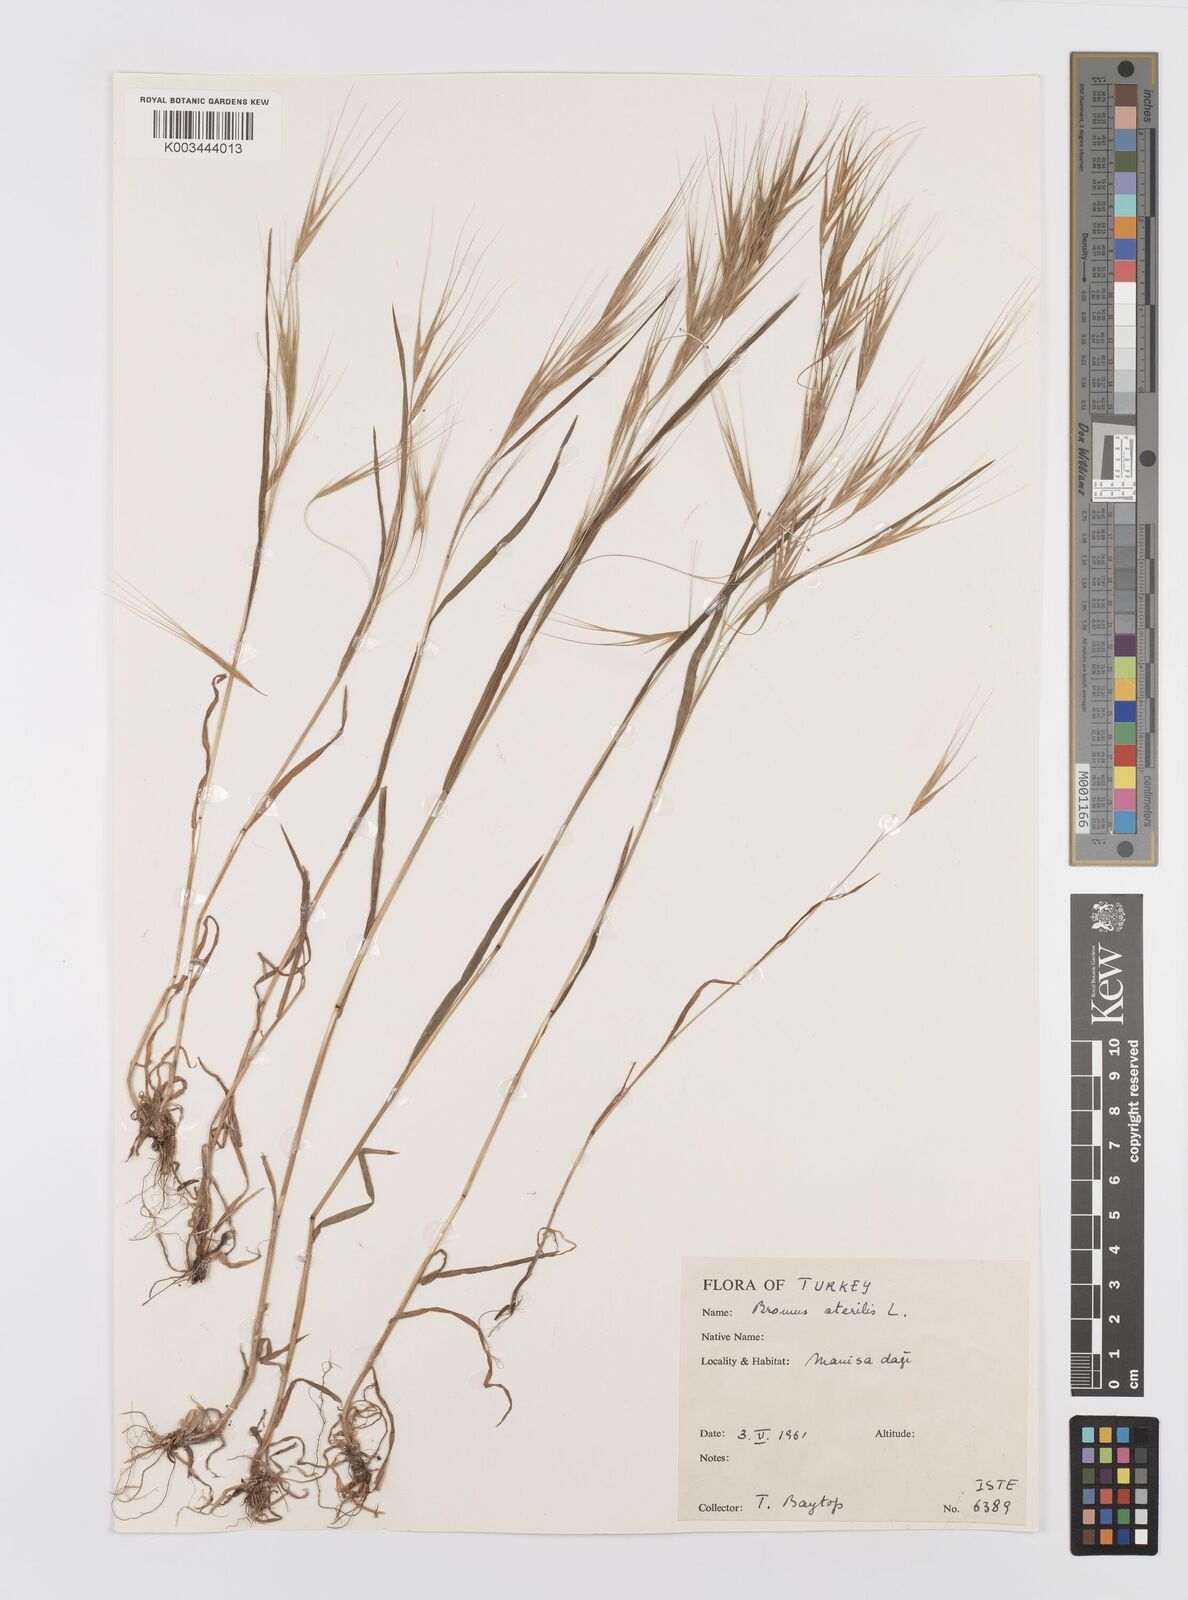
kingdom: Plantae
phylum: Tracheophyta
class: Liliopsida
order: Poales
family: Poaceae
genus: Bromus
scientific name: Bromus sterilis
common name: Poverty brome
